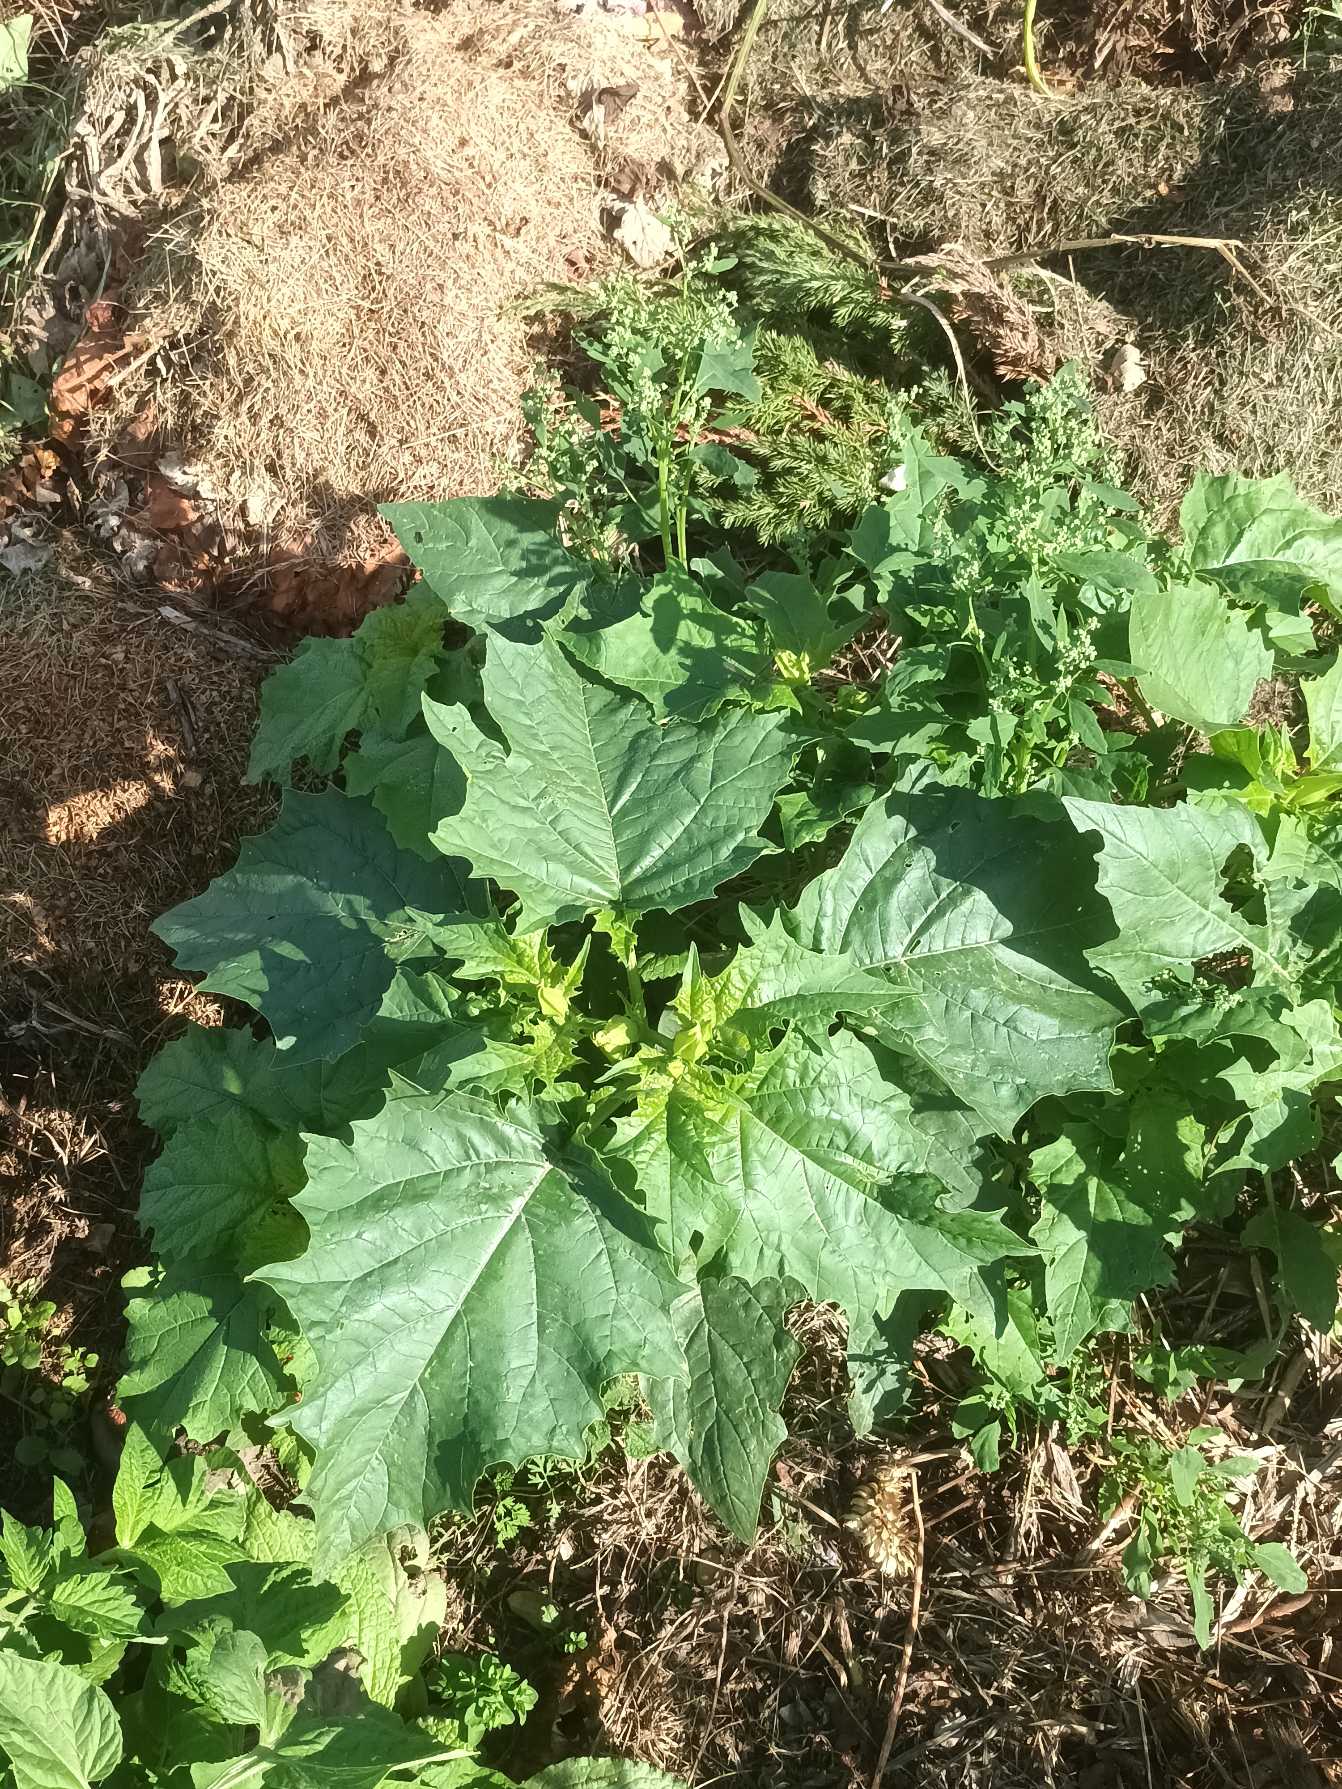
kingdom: Plantae
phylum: Tracheophyta
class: Magnoliopsida
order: Solanales
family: Solanaceae
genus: Datura
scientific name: Datura stramonium
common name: Pigæble
